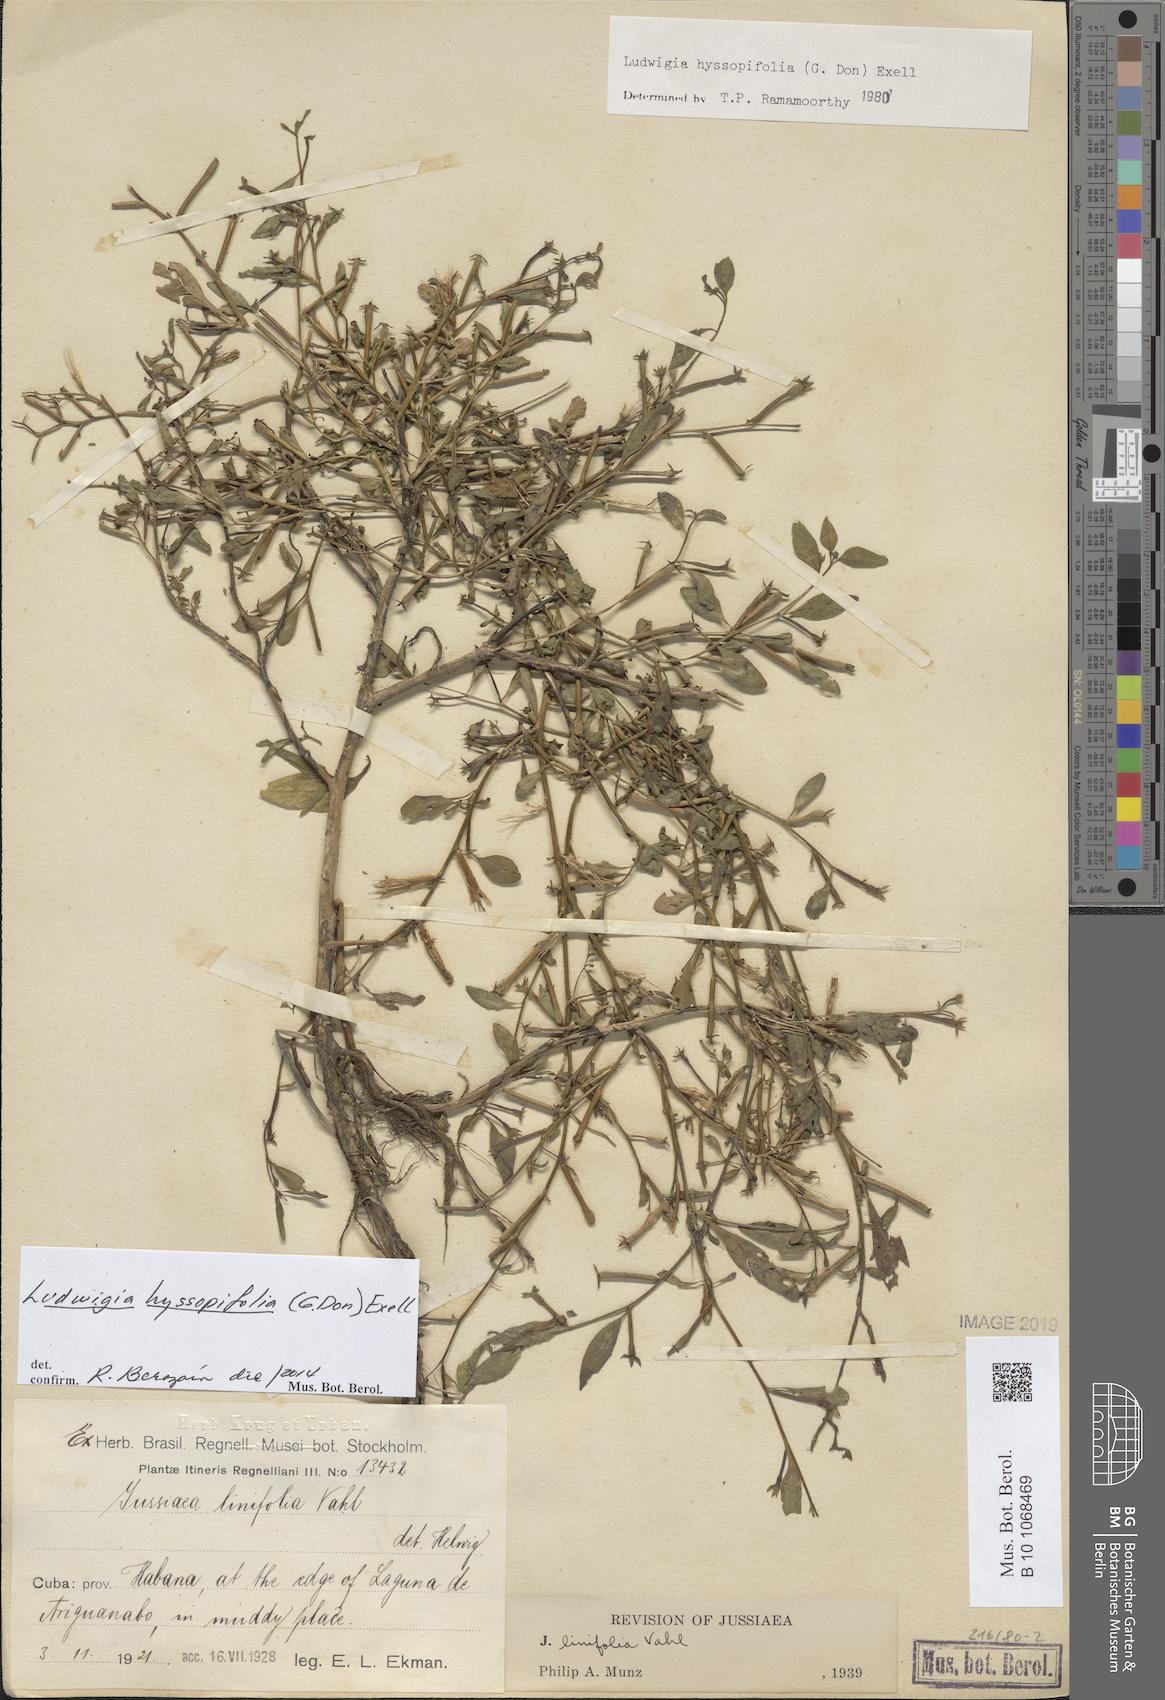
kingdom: Plantae
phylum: Tracheophyta
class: Magnoliopsida
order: Myrtales
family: Onagraceae
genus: Ludwigia
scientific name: Ludwigia hyssopifolia
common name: Linear leaf water primrose
